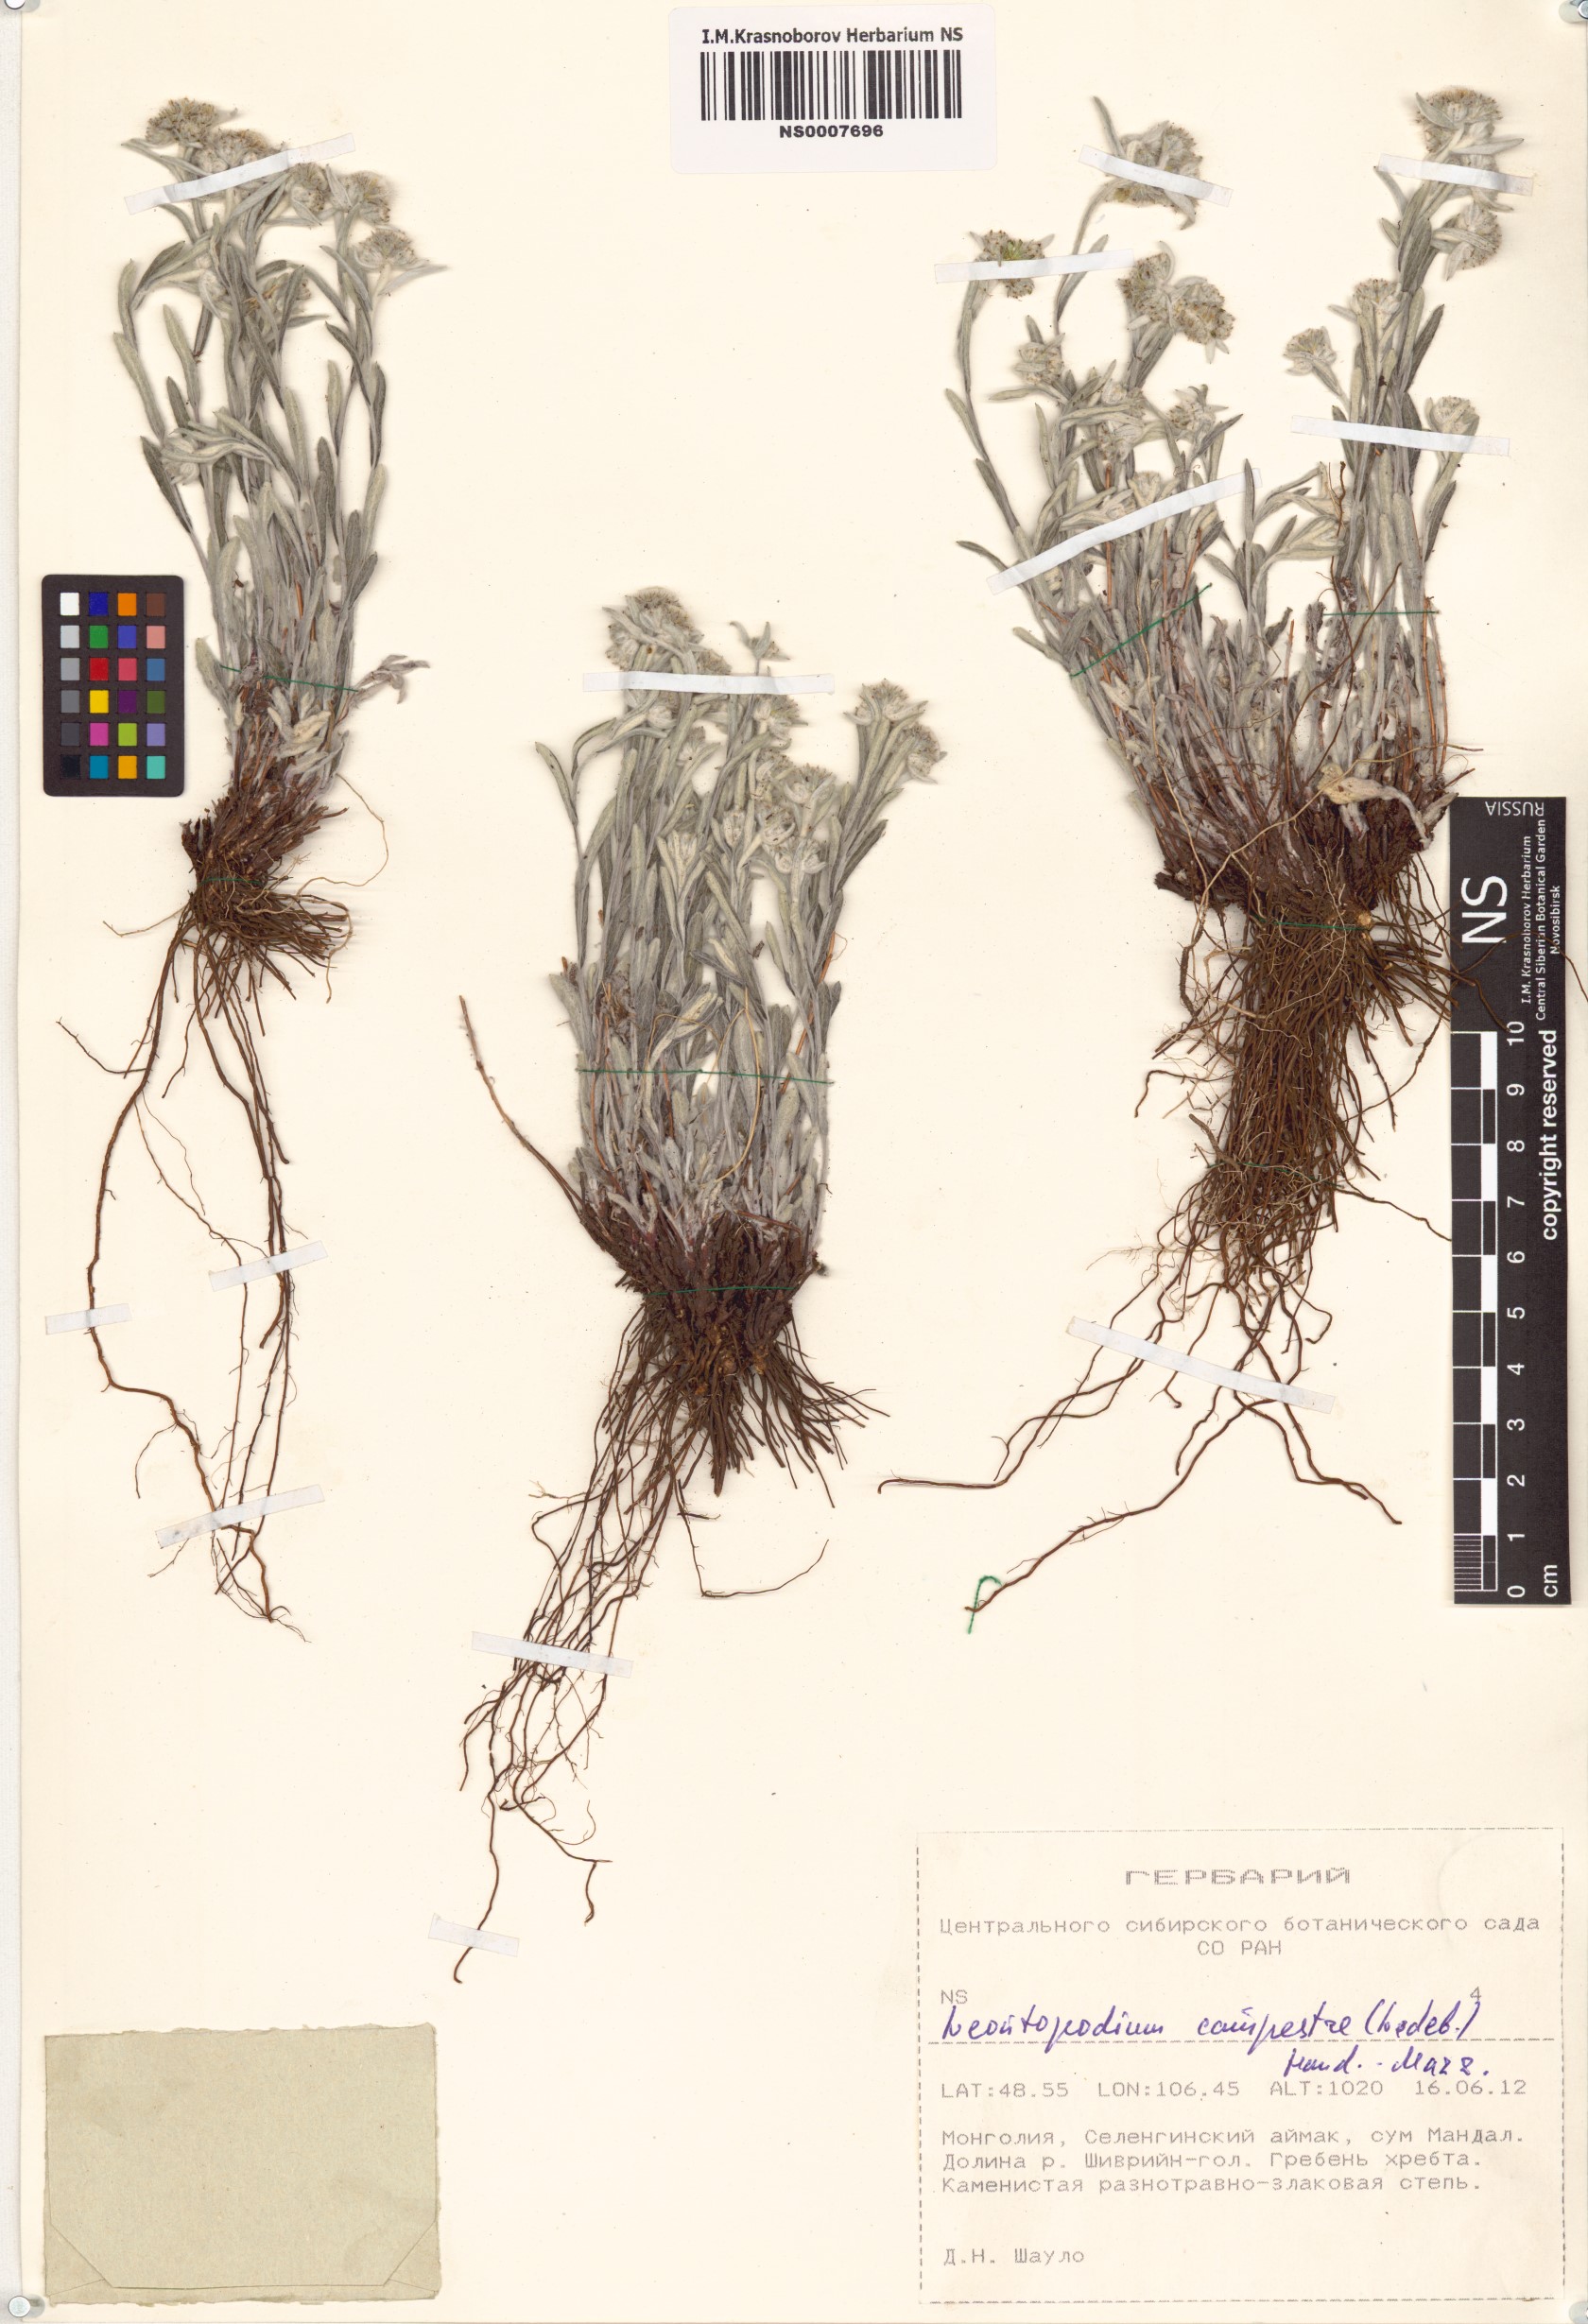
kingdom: Plantae
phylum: Tracheophyta
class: Magnoliopsida
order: Asterales
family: Asteraceae
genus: Leontopodium
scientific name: Leontopodium campestre
